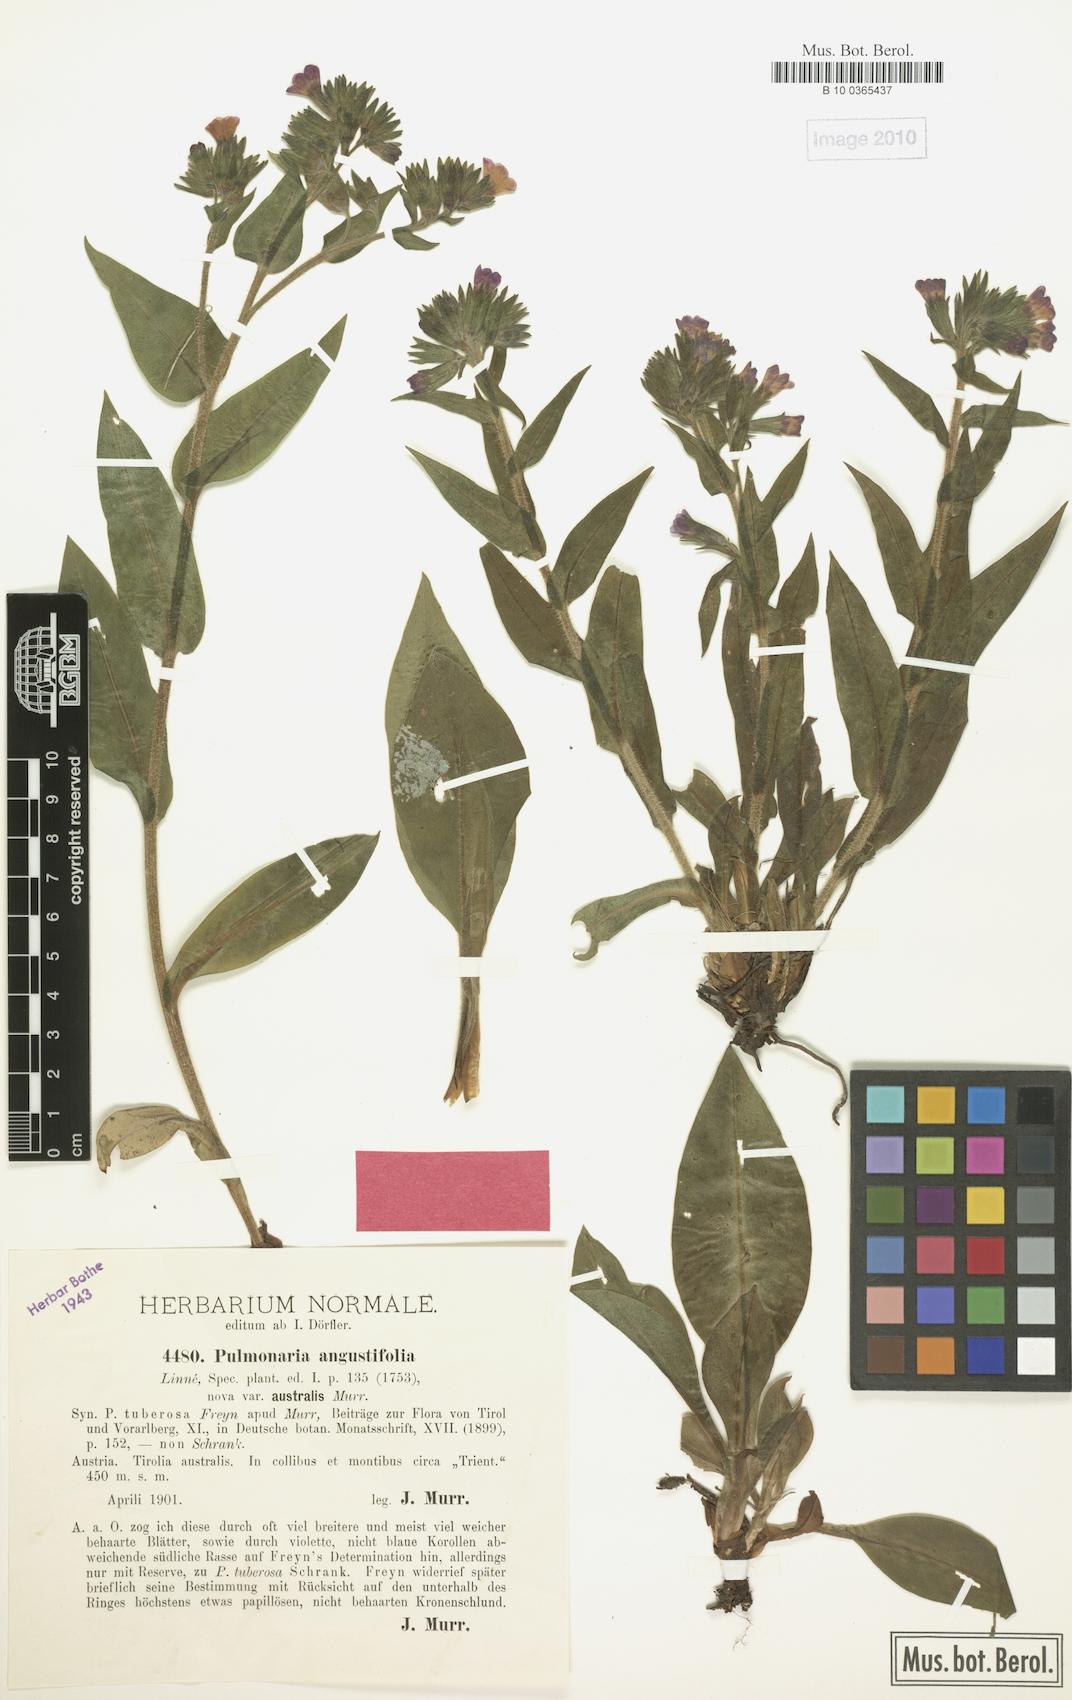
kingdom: Plantae
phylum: Tracheophyta
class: Magnoliopsida
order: Boraginales
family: Boraginaceae
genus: Pulmonaria
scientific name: Pulmonaria angustifolia
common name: Blue cowslip
